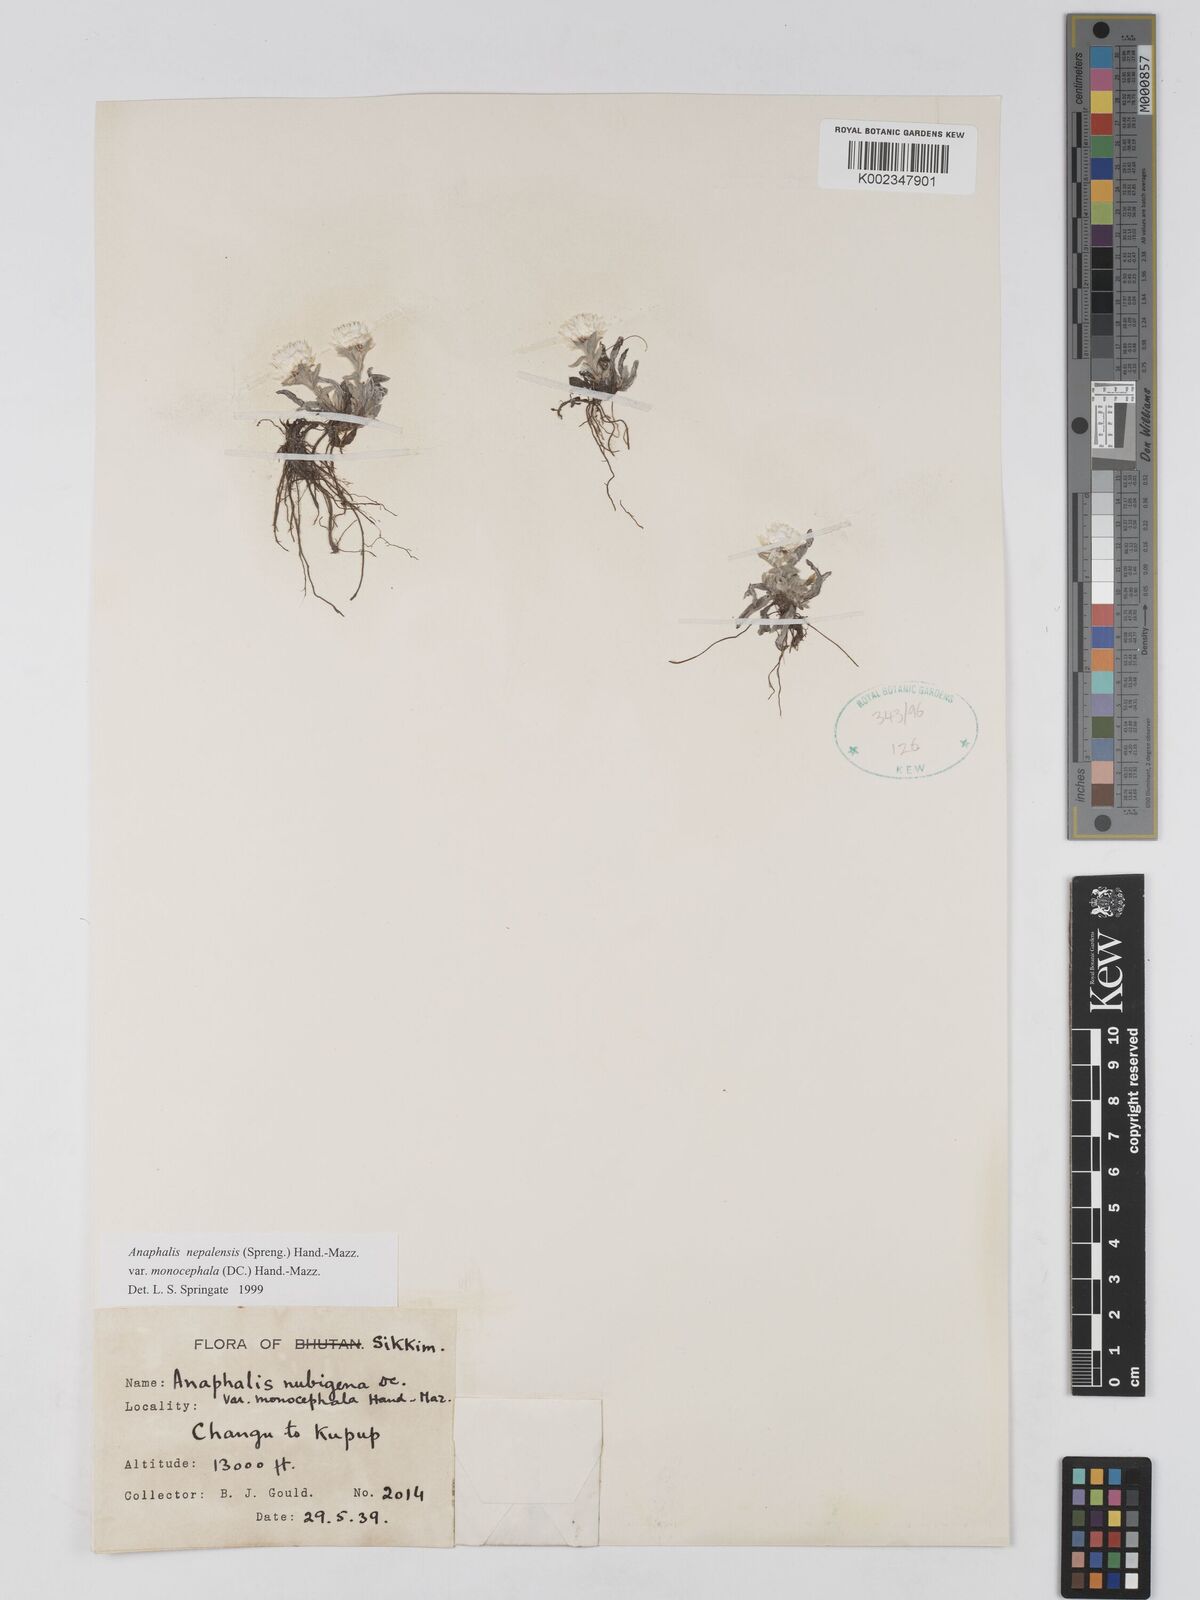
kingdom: Plantae
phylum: Tracheophyta
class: Magnoliopsida
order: Asterales
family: Asteraceae
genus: Anaphalis
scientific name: Anaphalis nepalensis
